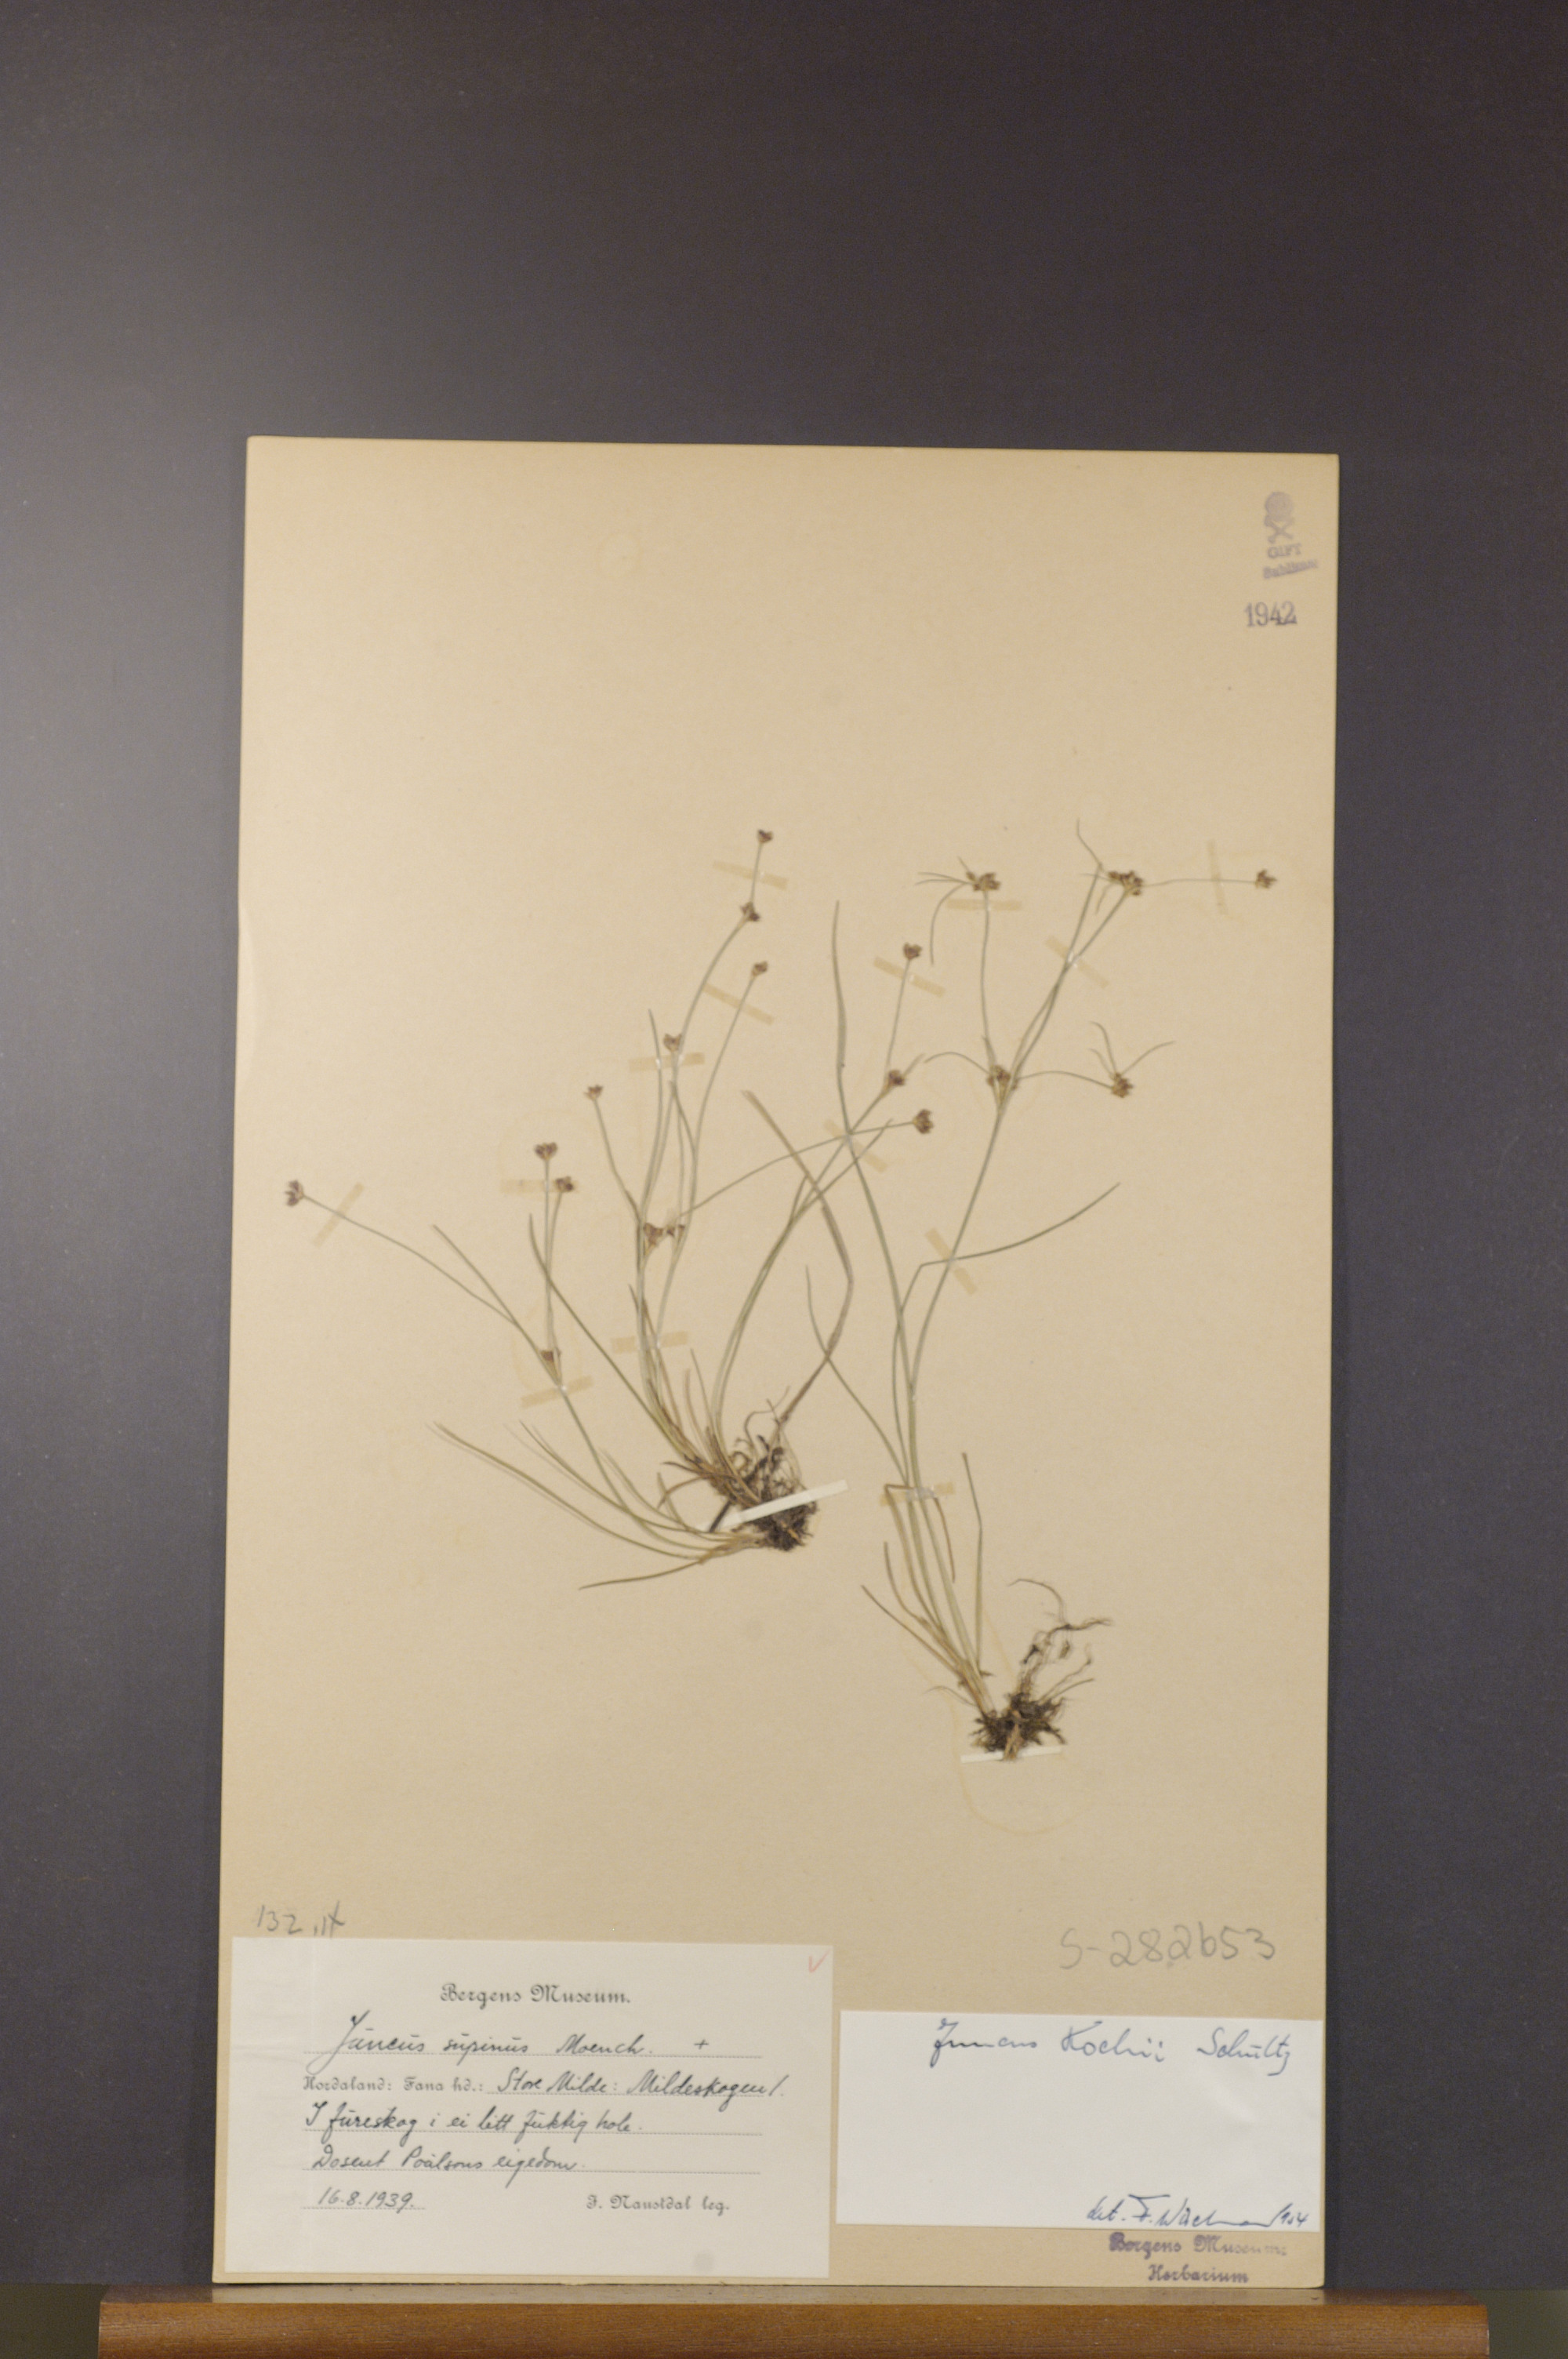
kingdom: Plantae
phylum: Tracheophyta
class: Liliopsida
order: Poales
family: Juncaceae
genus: Juncus
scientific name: Juncus bulbosus
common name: Bulbous rush
